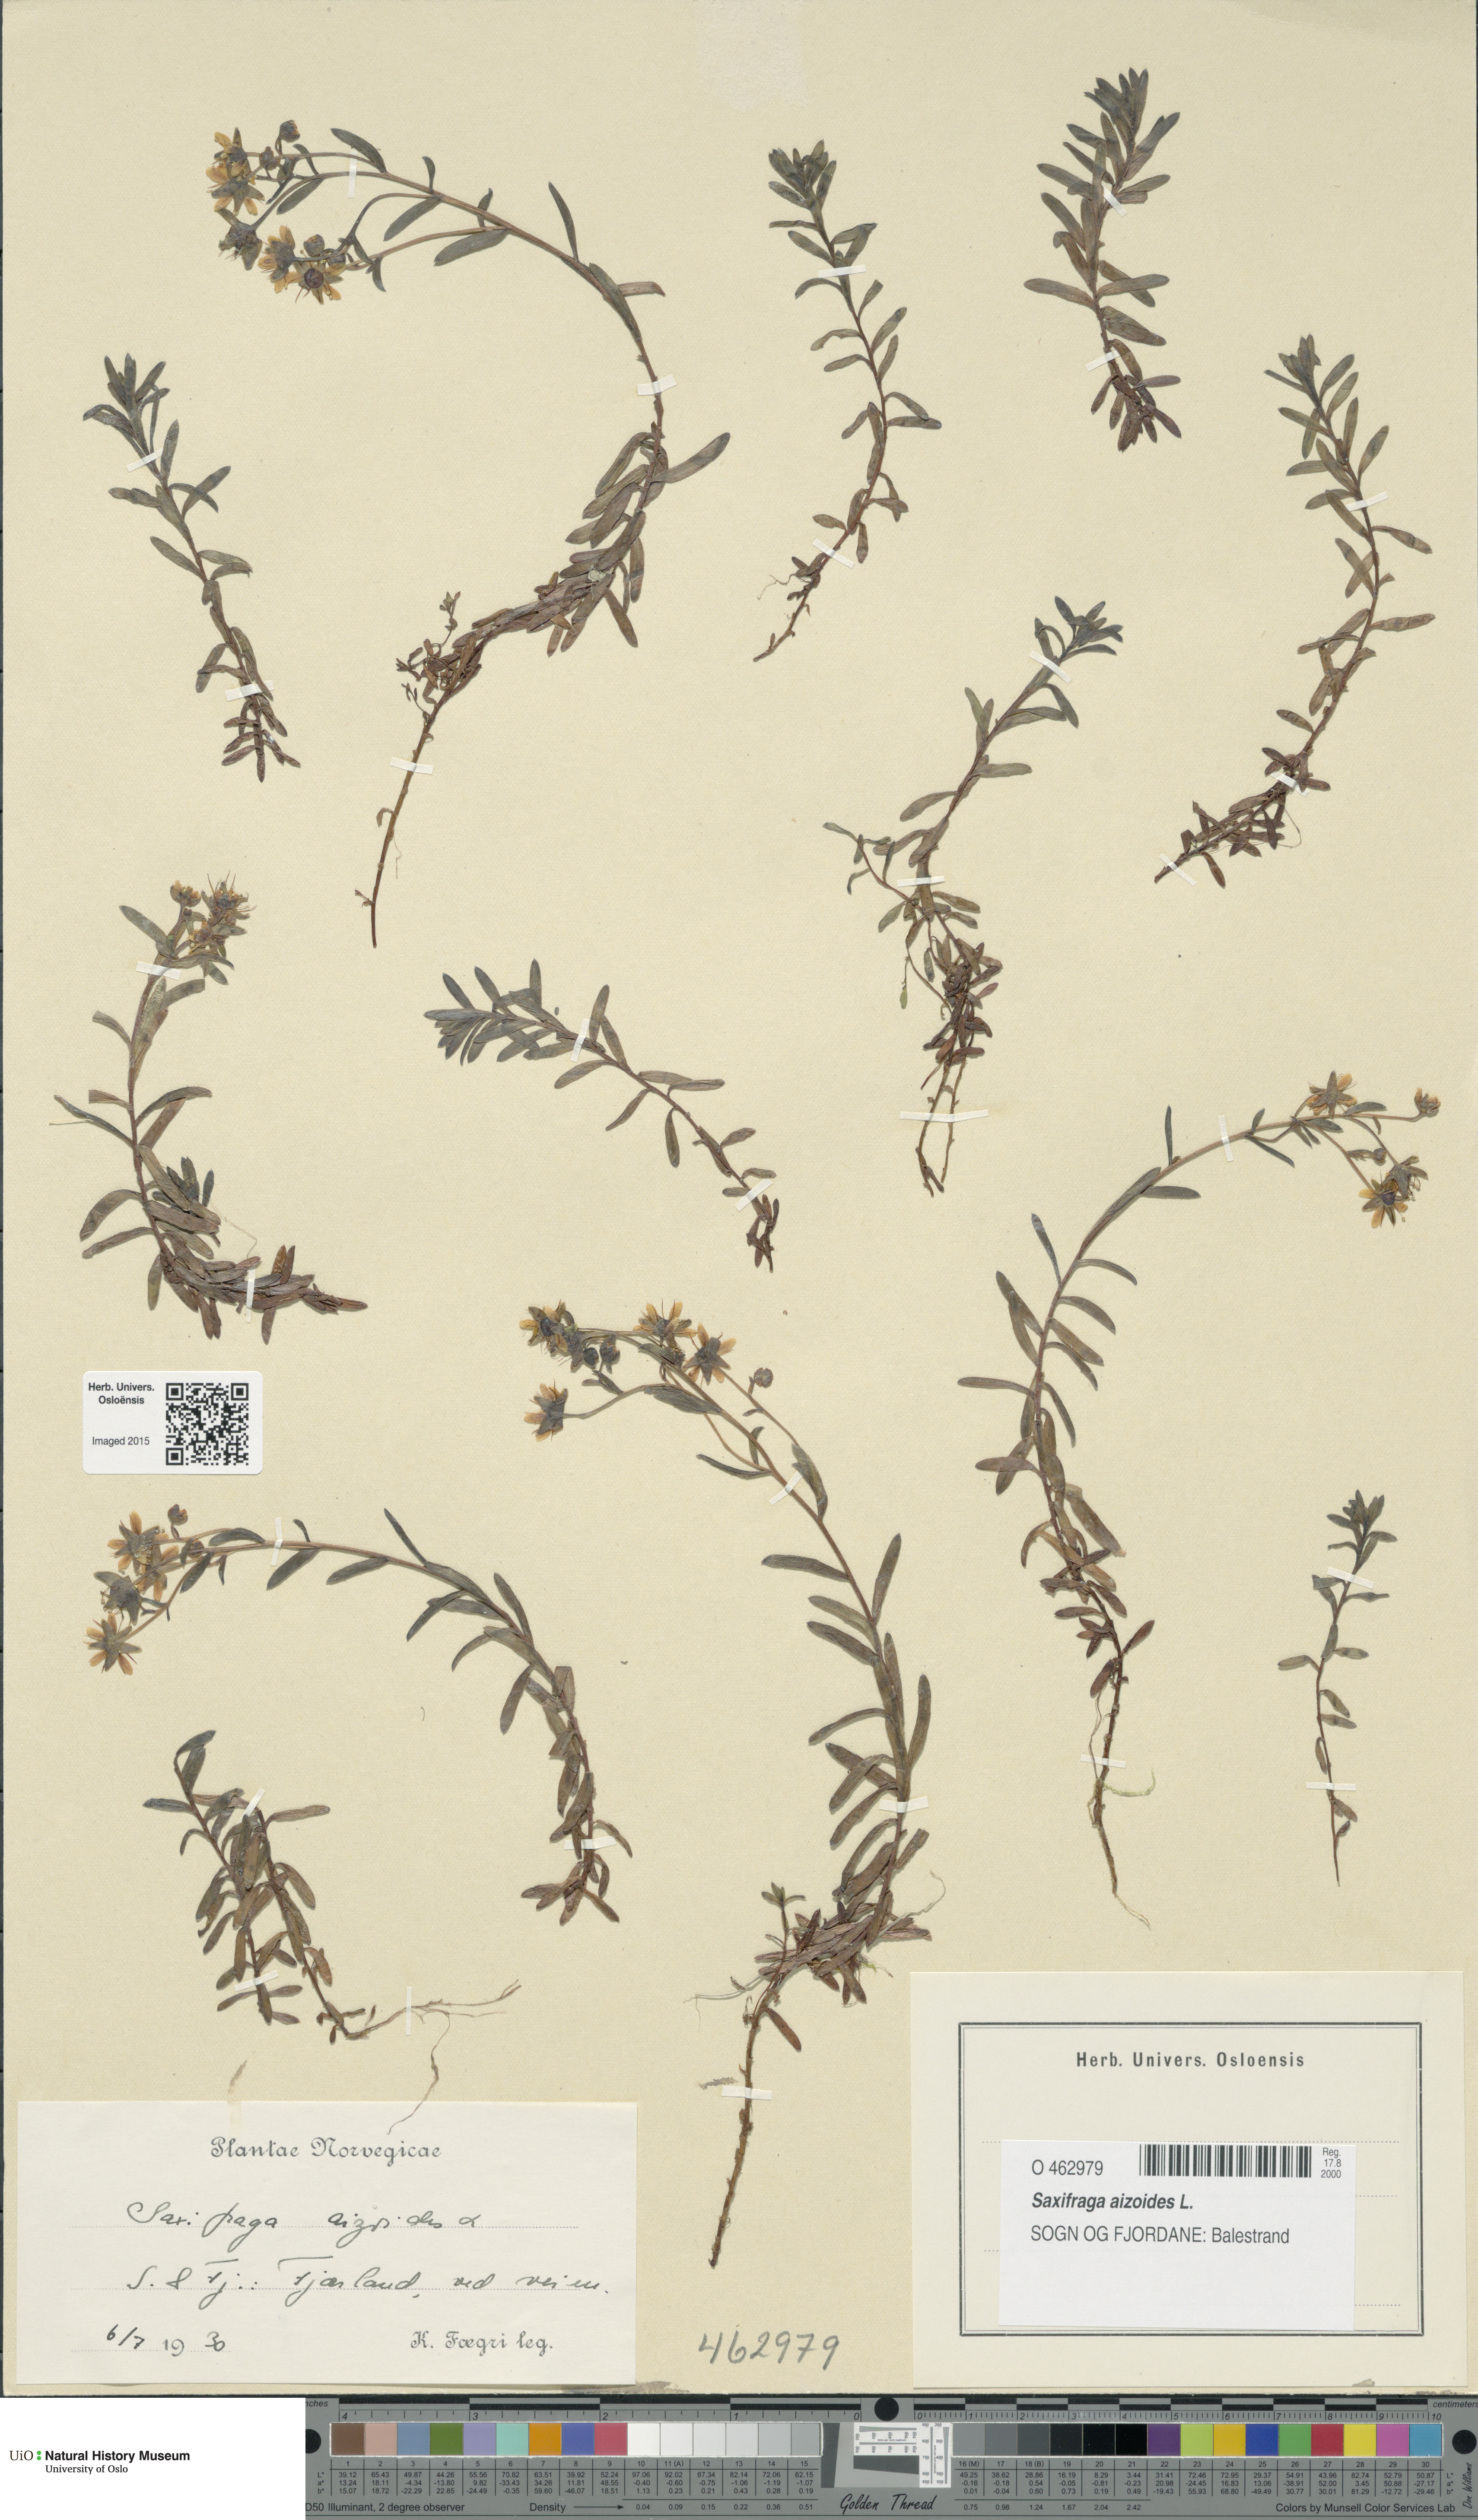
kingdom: Plantae
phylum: Tracheophyta
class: Magnoliopsida
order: Saxifragales
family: Saxifragaceae
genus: Saxifraga
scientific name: Saxifraga aizoides
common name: Yellow mountain saxifrage
